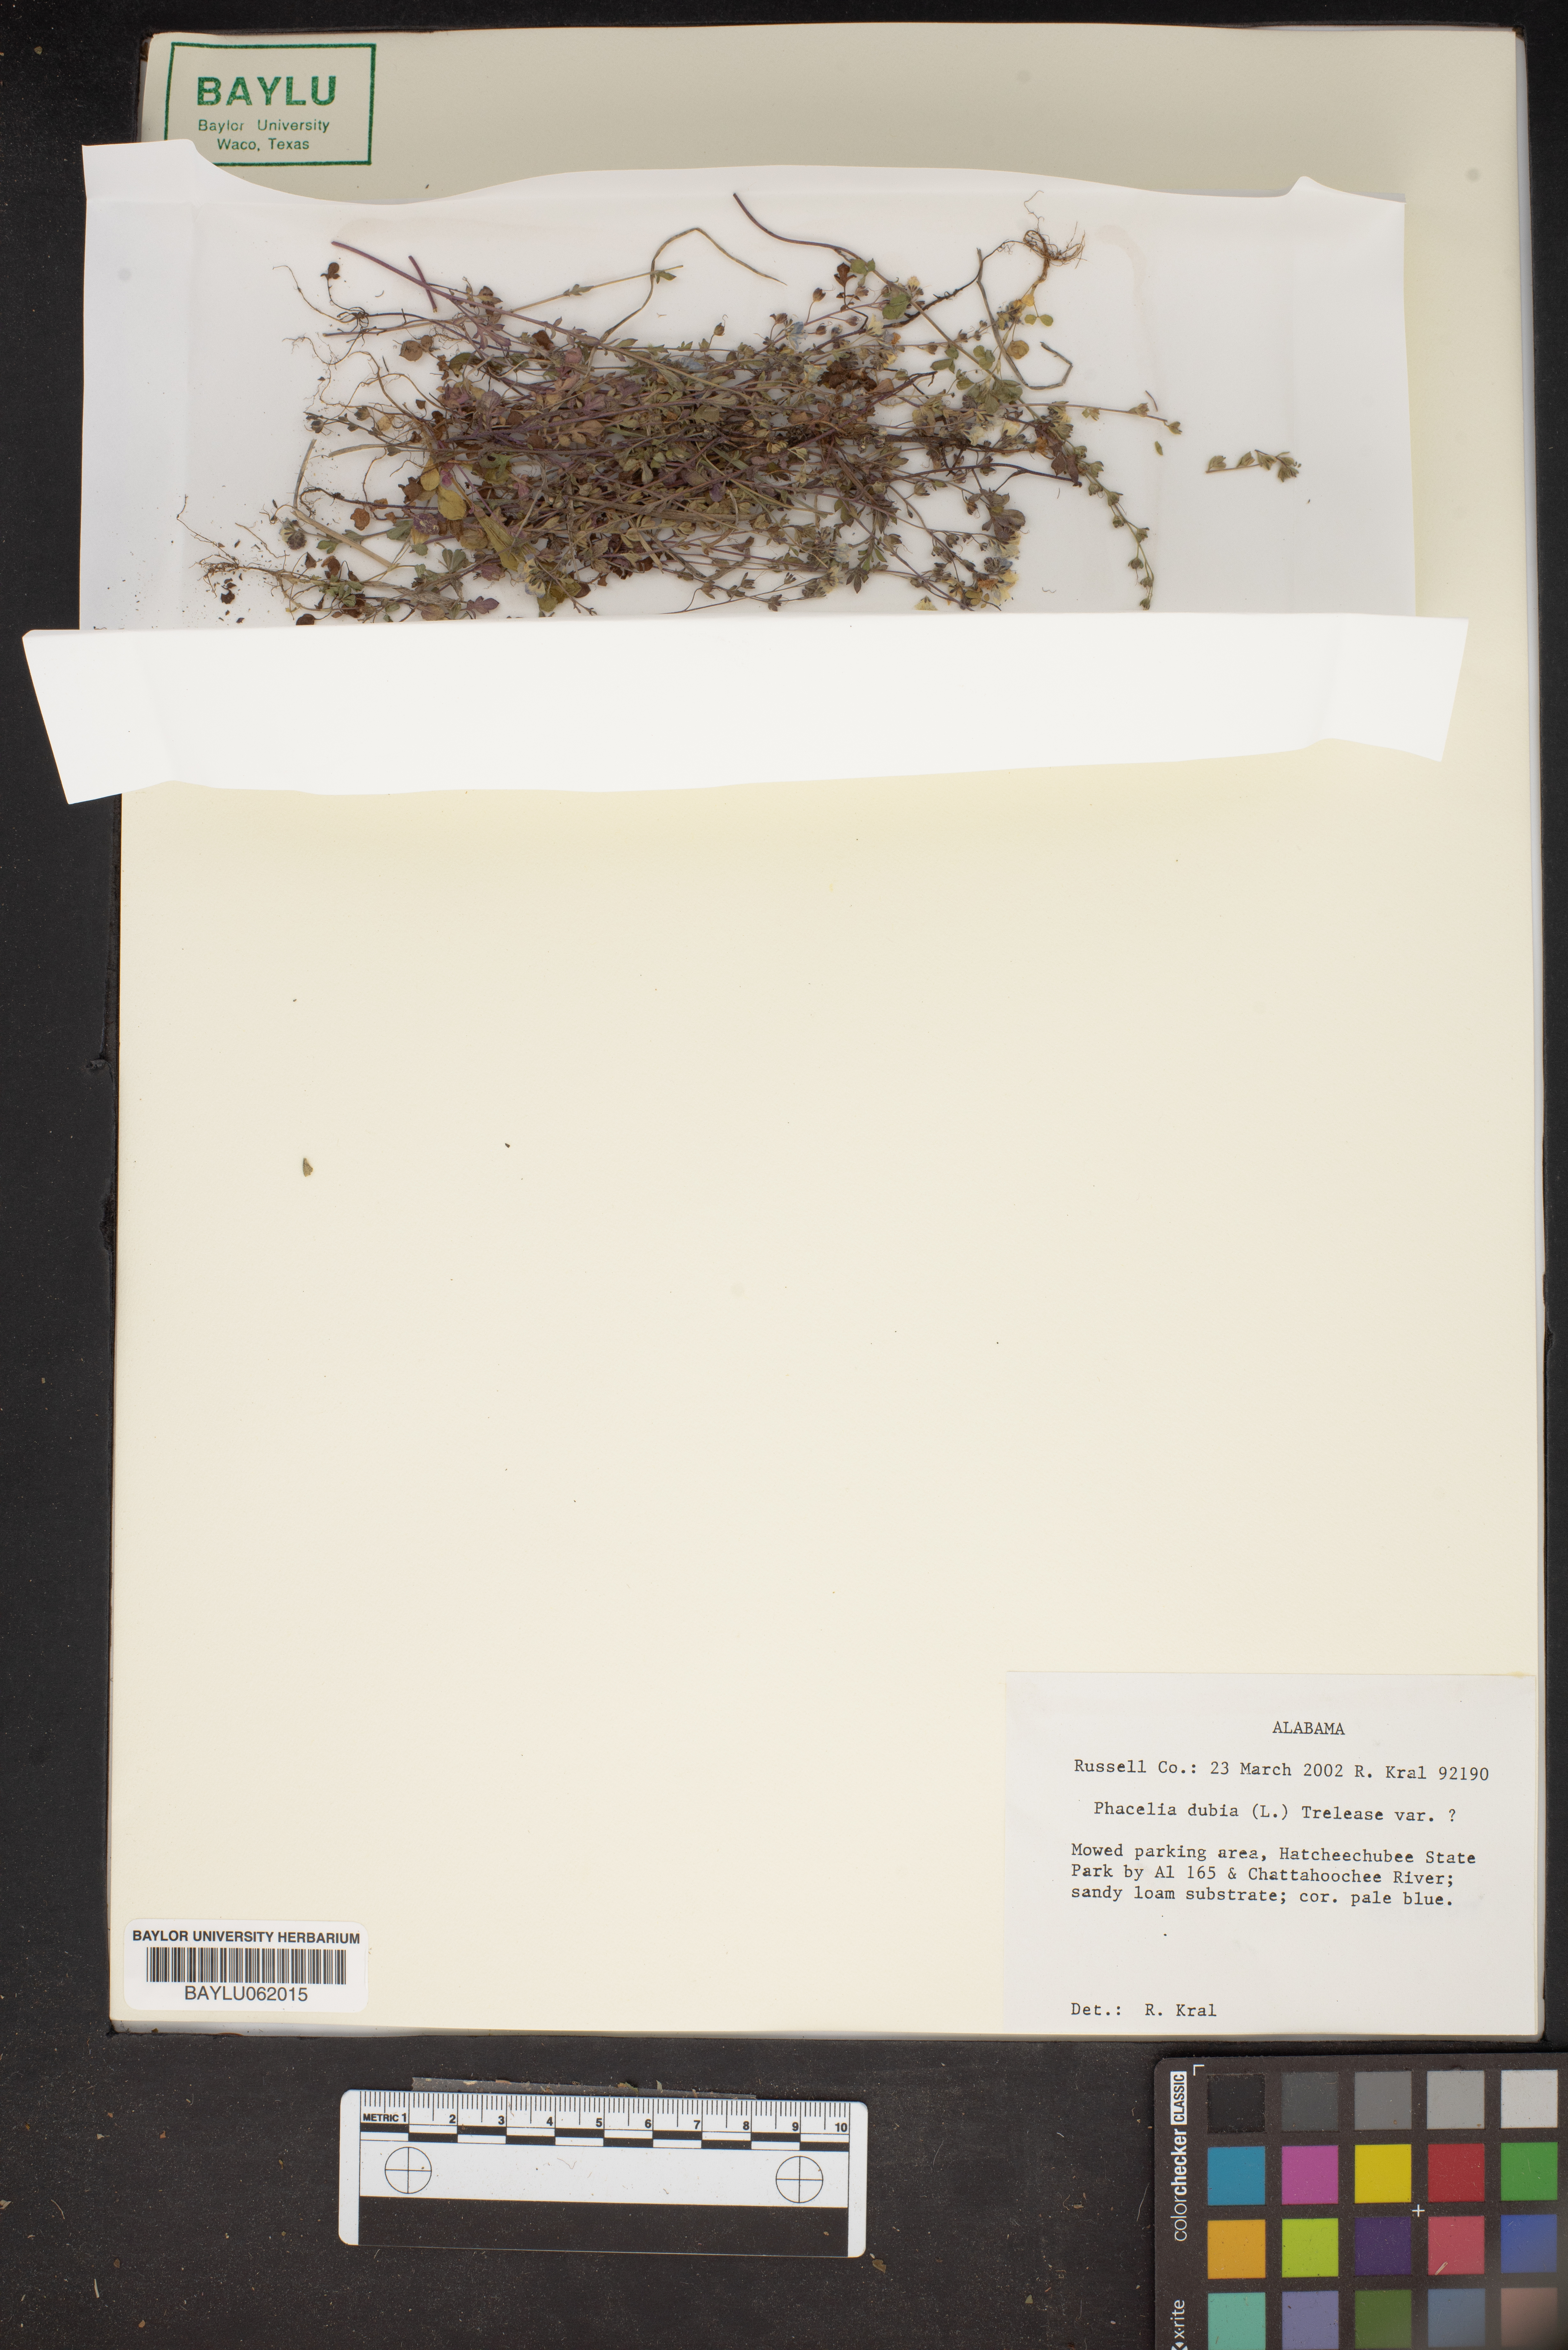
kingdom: Plantae
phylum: Tracheophyta
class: Magnoliopsida
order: Boraginales
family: Hydrophyllaceae
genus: Phacelia
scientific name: Phacelia dubia
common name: Appalachian phacelia
